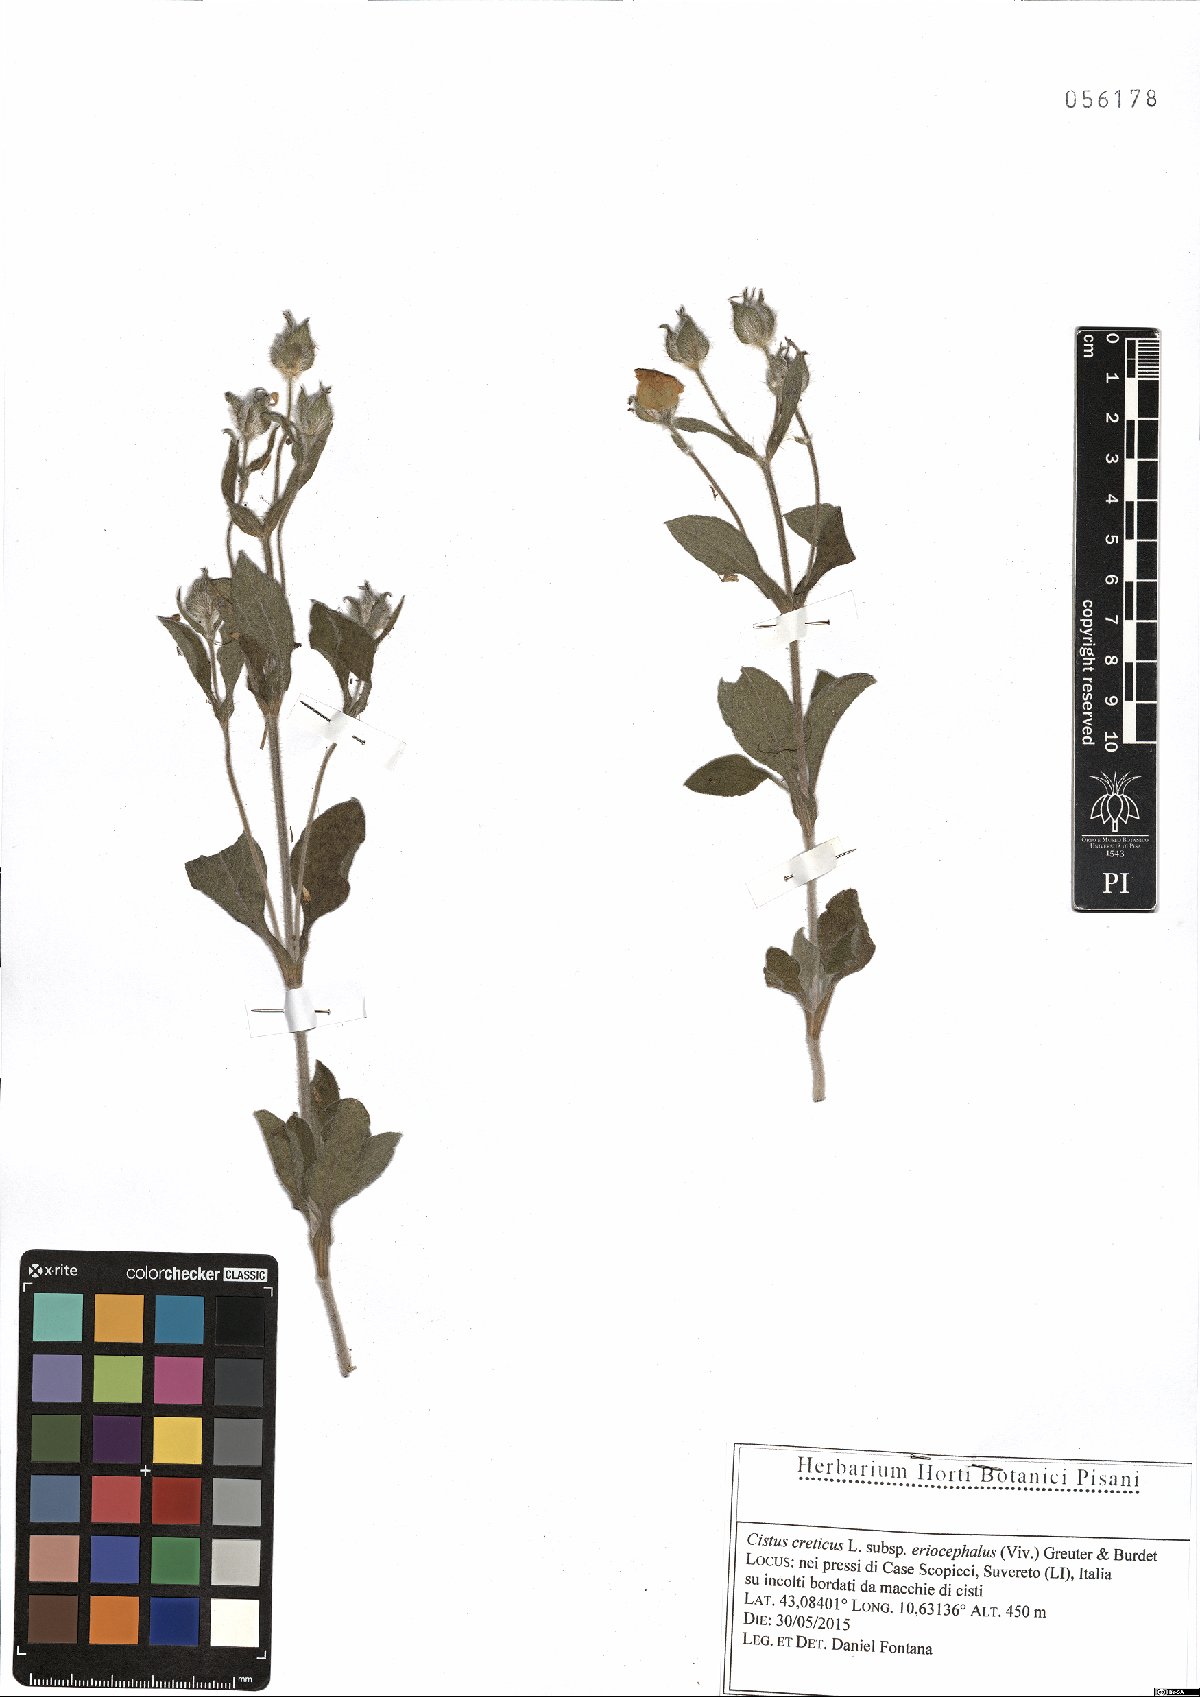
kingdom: Plantae
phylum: Tracheophyta
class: Magnoliopsida
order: Malvales
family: Cistaceae
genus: Cistus
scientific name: Cistus tauricus
